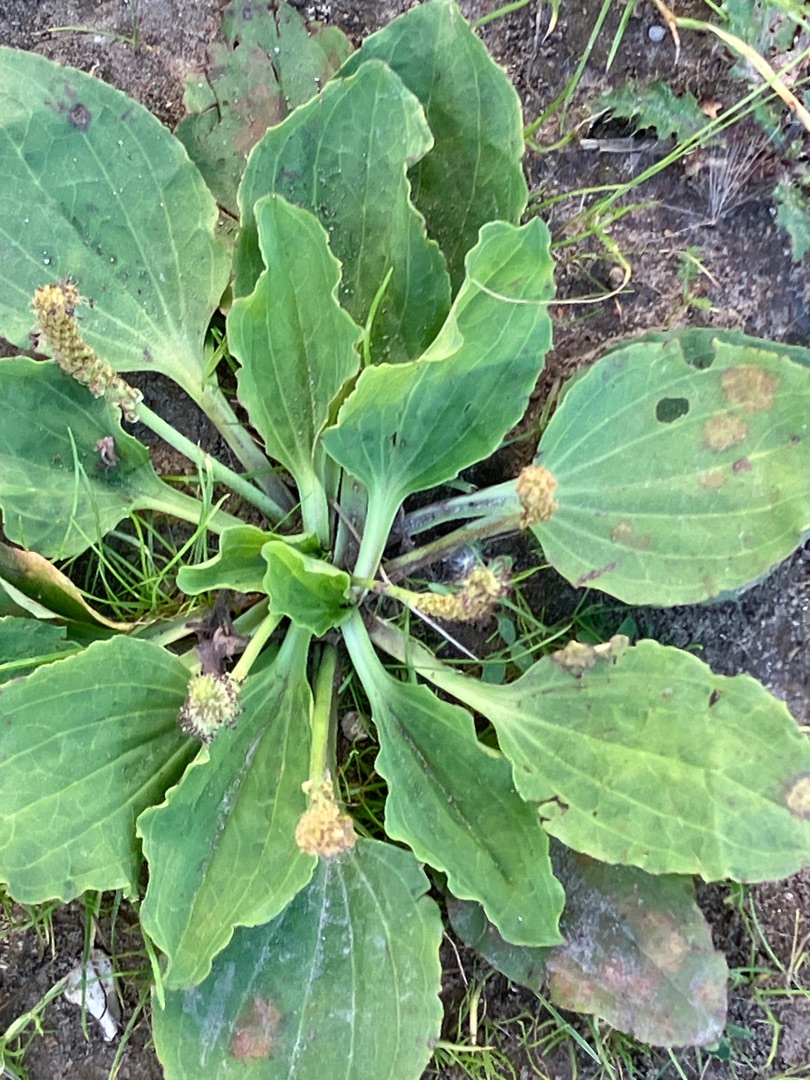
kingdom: Plantae
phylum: Tracheophyta
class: Magnoliopsida
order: Lamiales
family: Plantaginaceae
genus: Plantago
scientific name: Plantago major
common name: Glat vejbred
